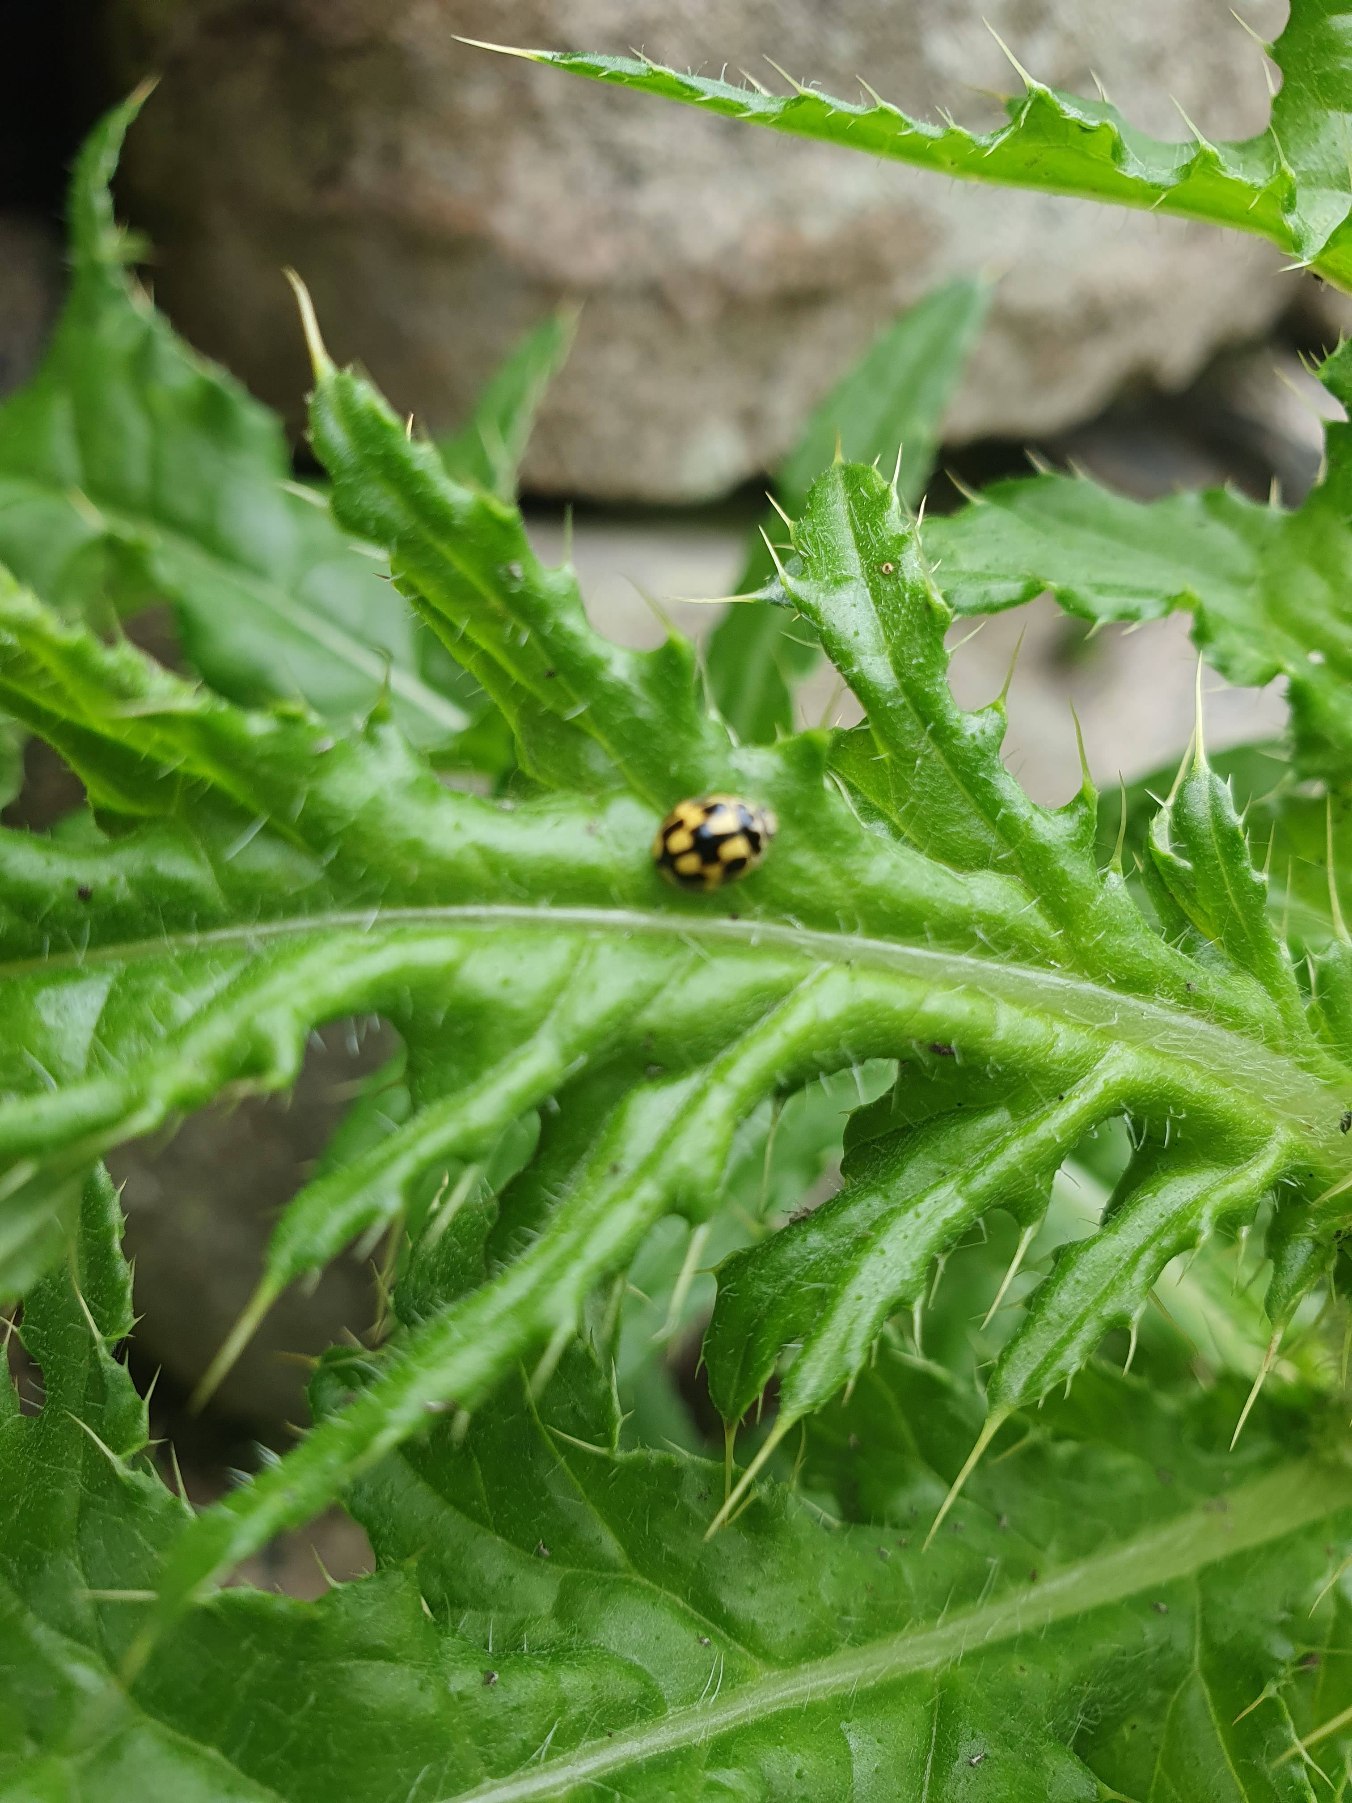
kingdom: Animalia
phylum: Arthropoda
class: Insecta
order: Coleoptera
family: Coccinellidae
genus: Propylaea
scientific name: Propylaea quatuordecimpunctata
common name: Skakbræt
